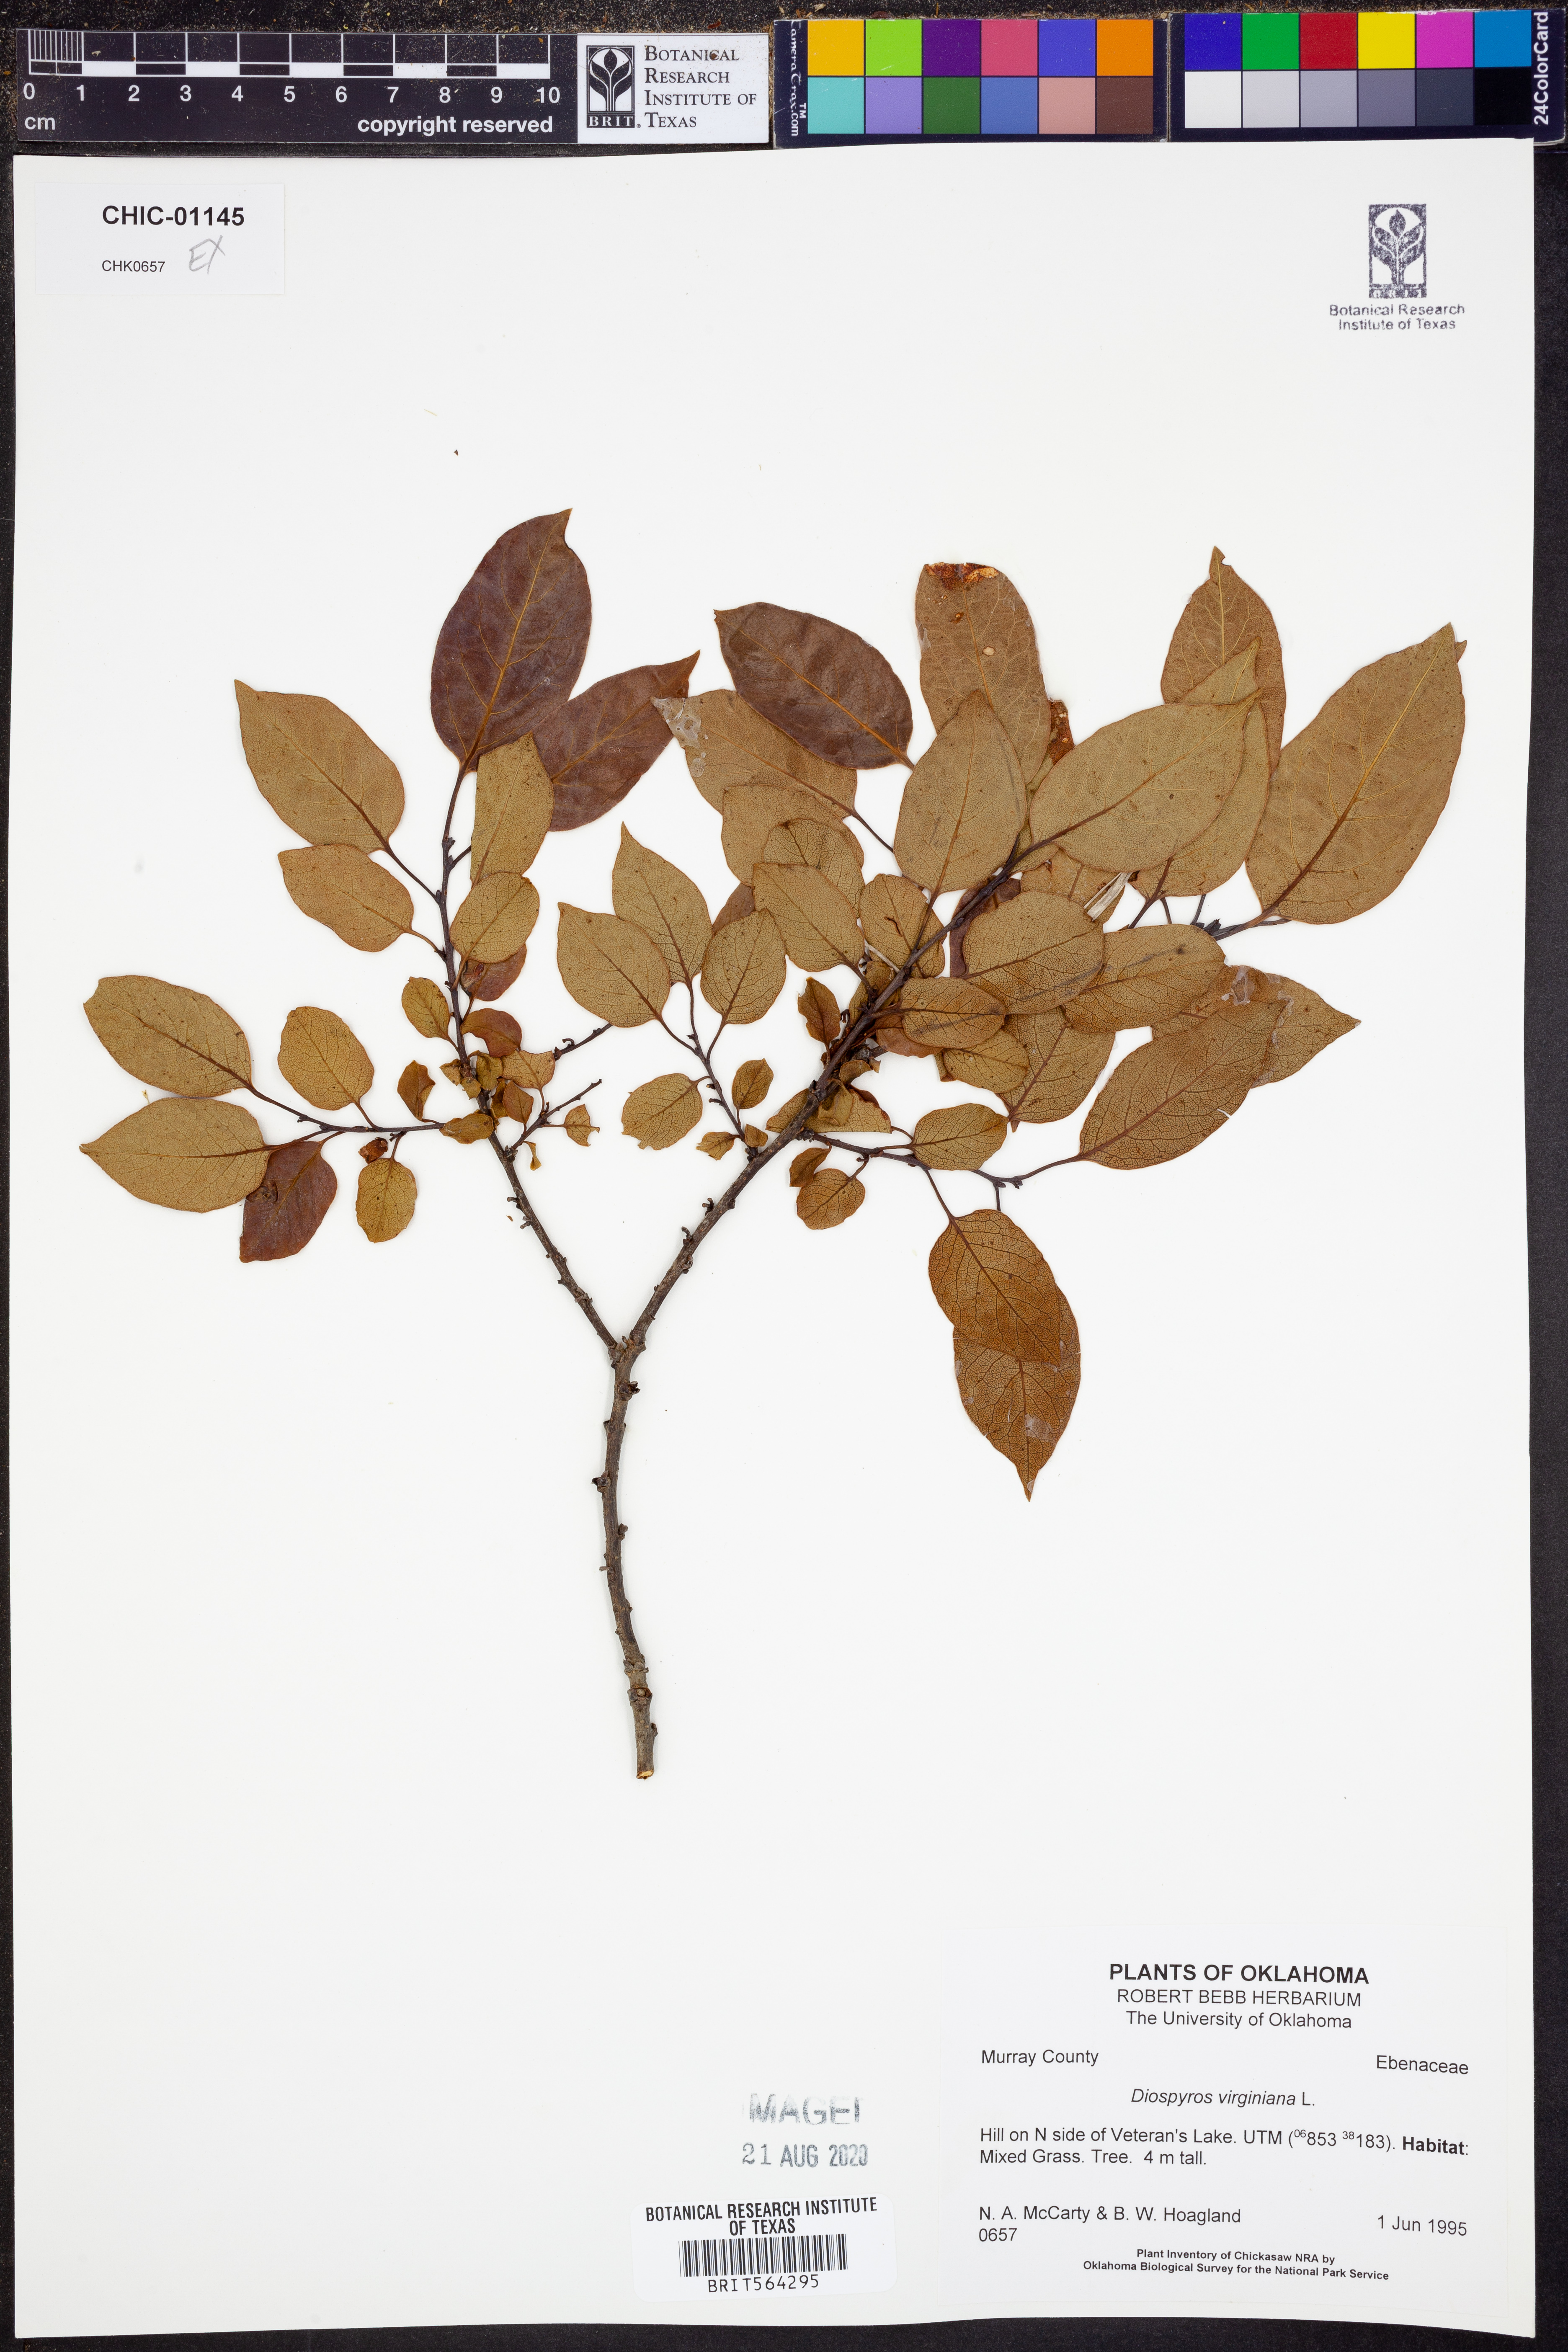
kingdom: Plantae
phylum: Tracheophyta
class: Magnoliopsida
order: Ericales
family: Ebenaceae
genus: Diospyros
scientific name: Diospyros virginiana
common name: Persimmon
